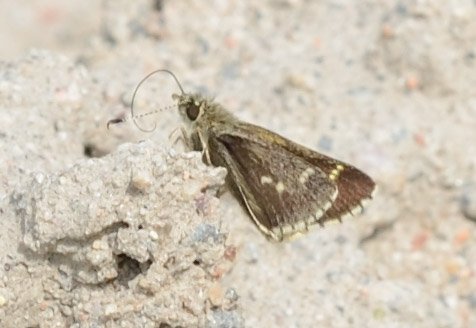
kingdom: Animalia
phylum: Arthropoda
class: Insecta
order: Lepidoptera
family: Hesperiidae
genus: Mastor
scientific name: Mastor hegon
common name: Pepper and Salt Skipper
